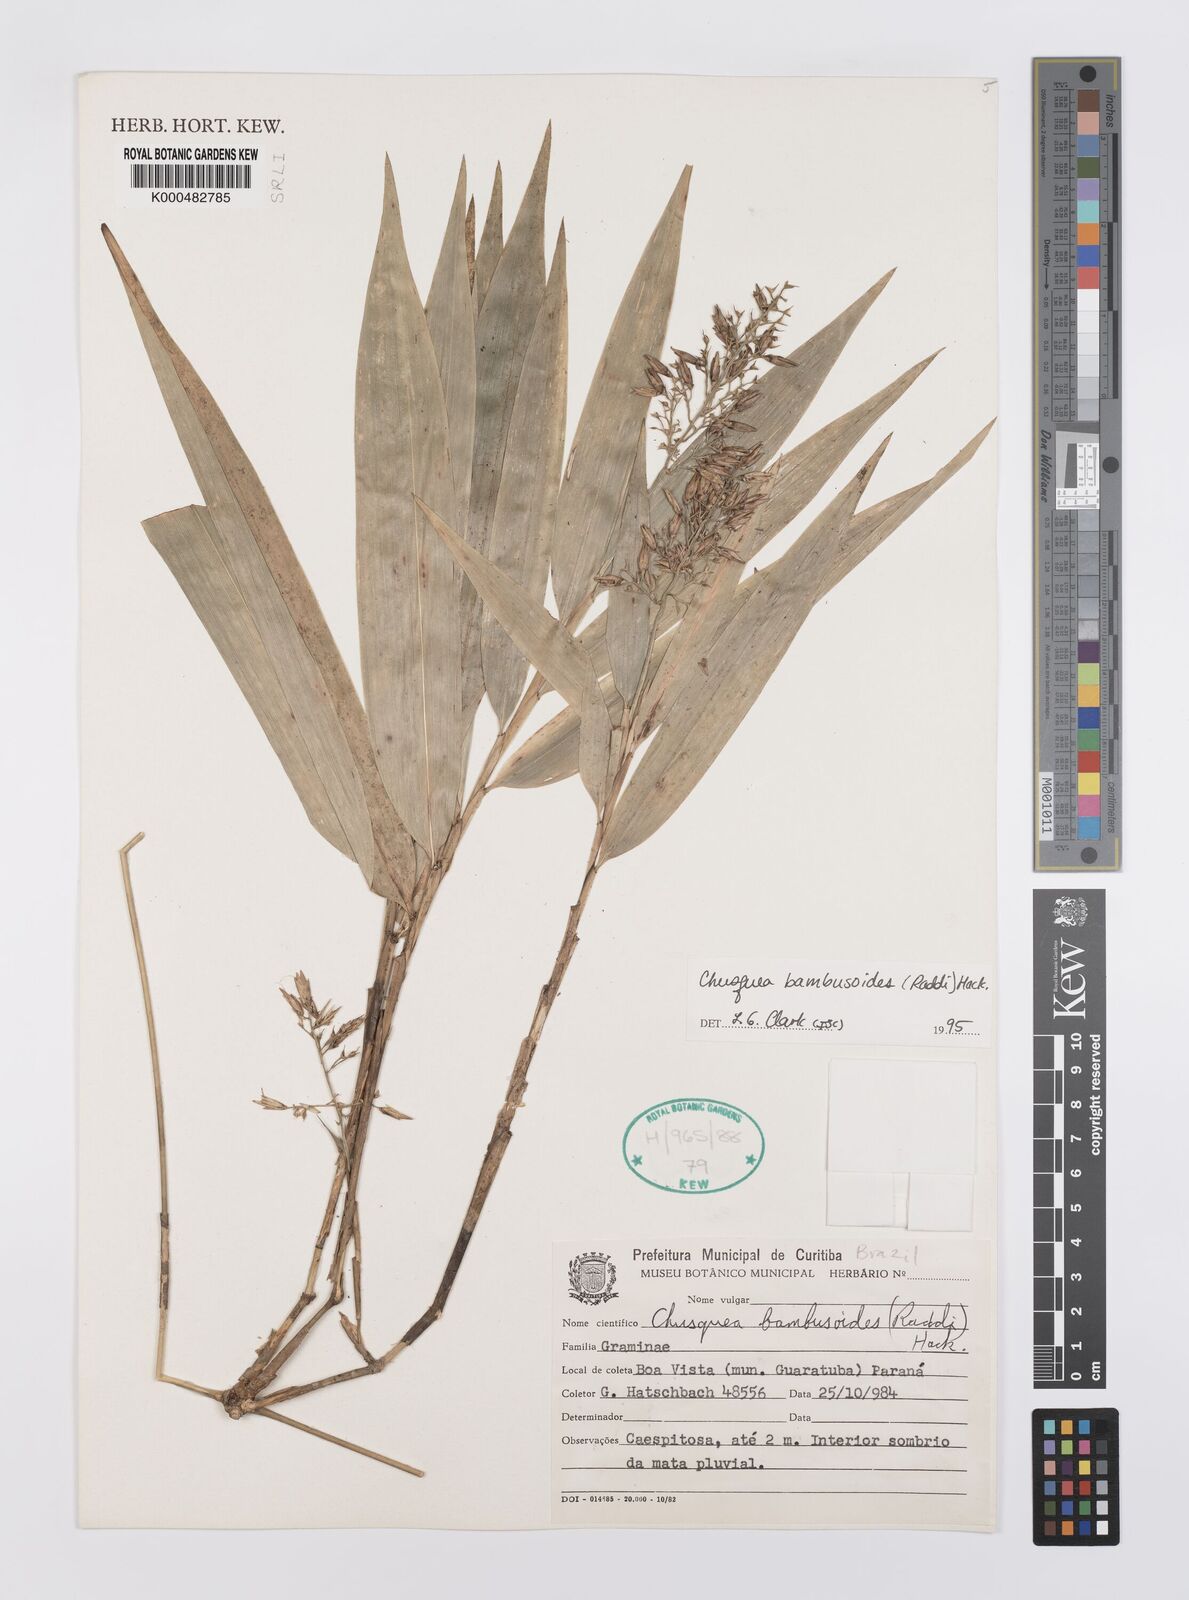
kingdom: Plantae
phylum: Tracheophyta
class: Liliopsida
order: Poales
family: Poaceae
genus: Chusquea
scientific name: Chusquea bambusoides
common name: Brazil scrambling bamboo
